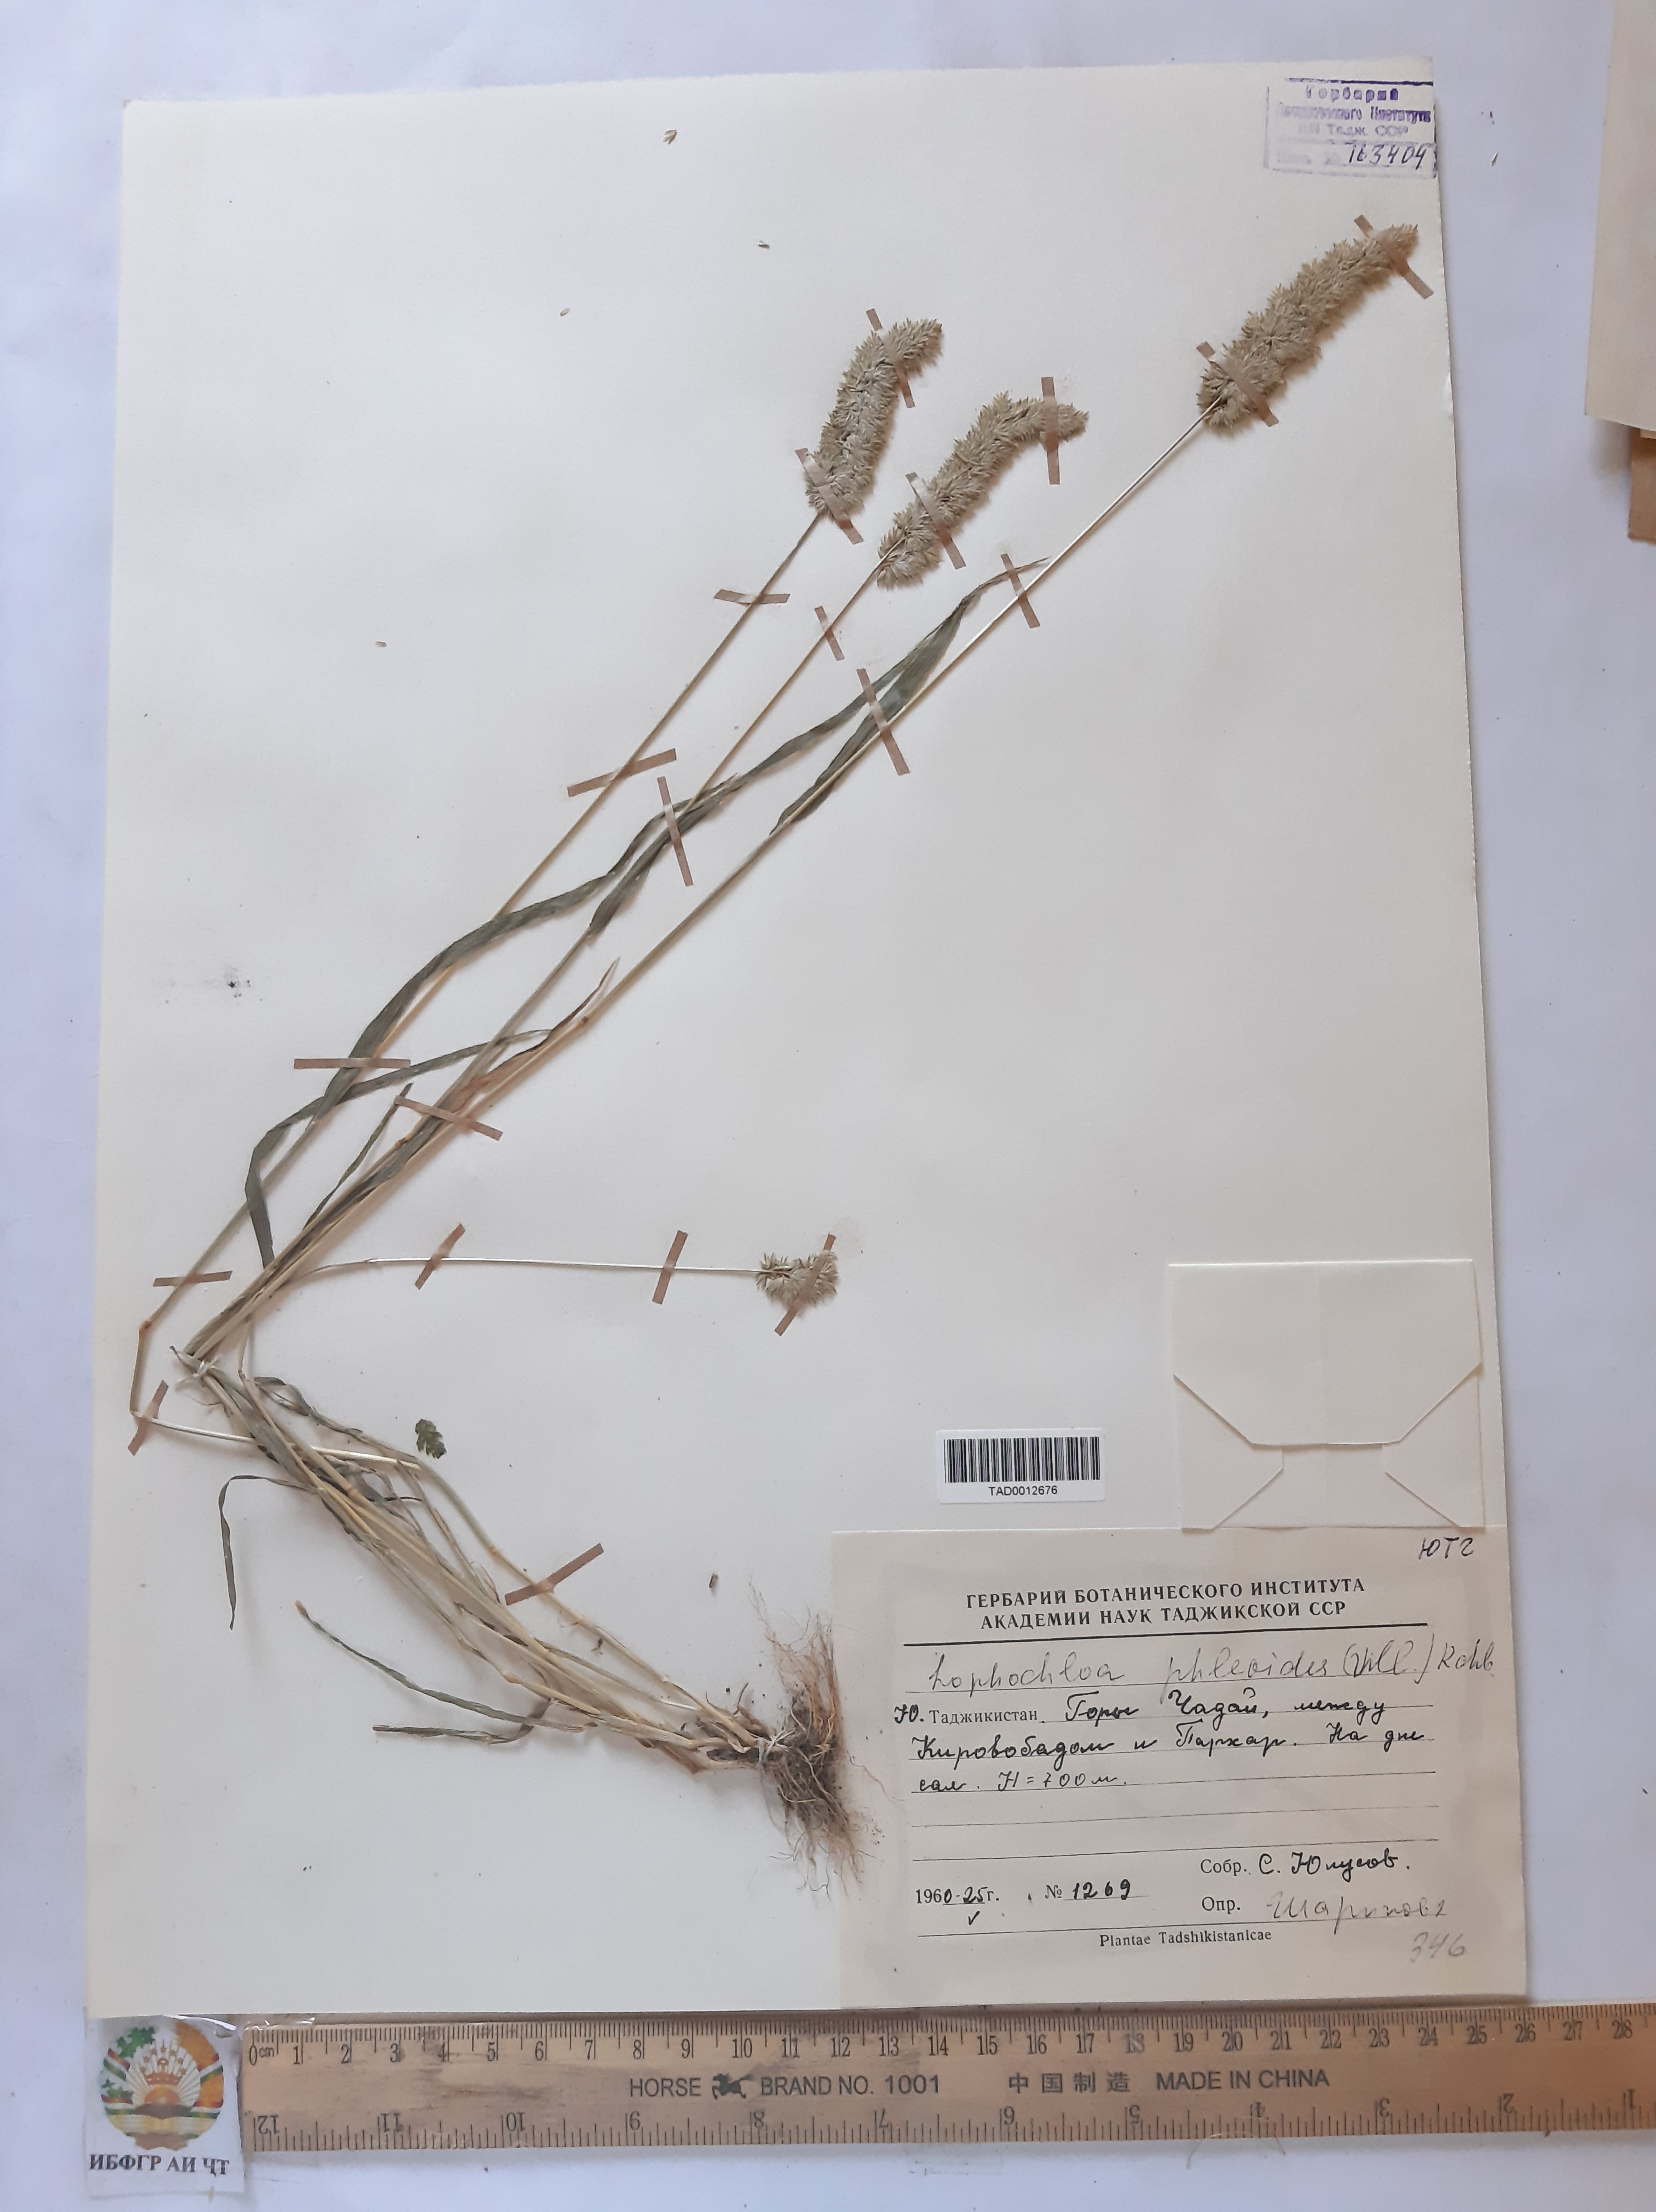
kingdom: Plantae
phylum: Tracheophyta
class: Liliopsida
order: Poales
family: Poaceae
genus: Rostraria
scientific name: Rostraria cristata
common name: Mediterranean hair-grass
